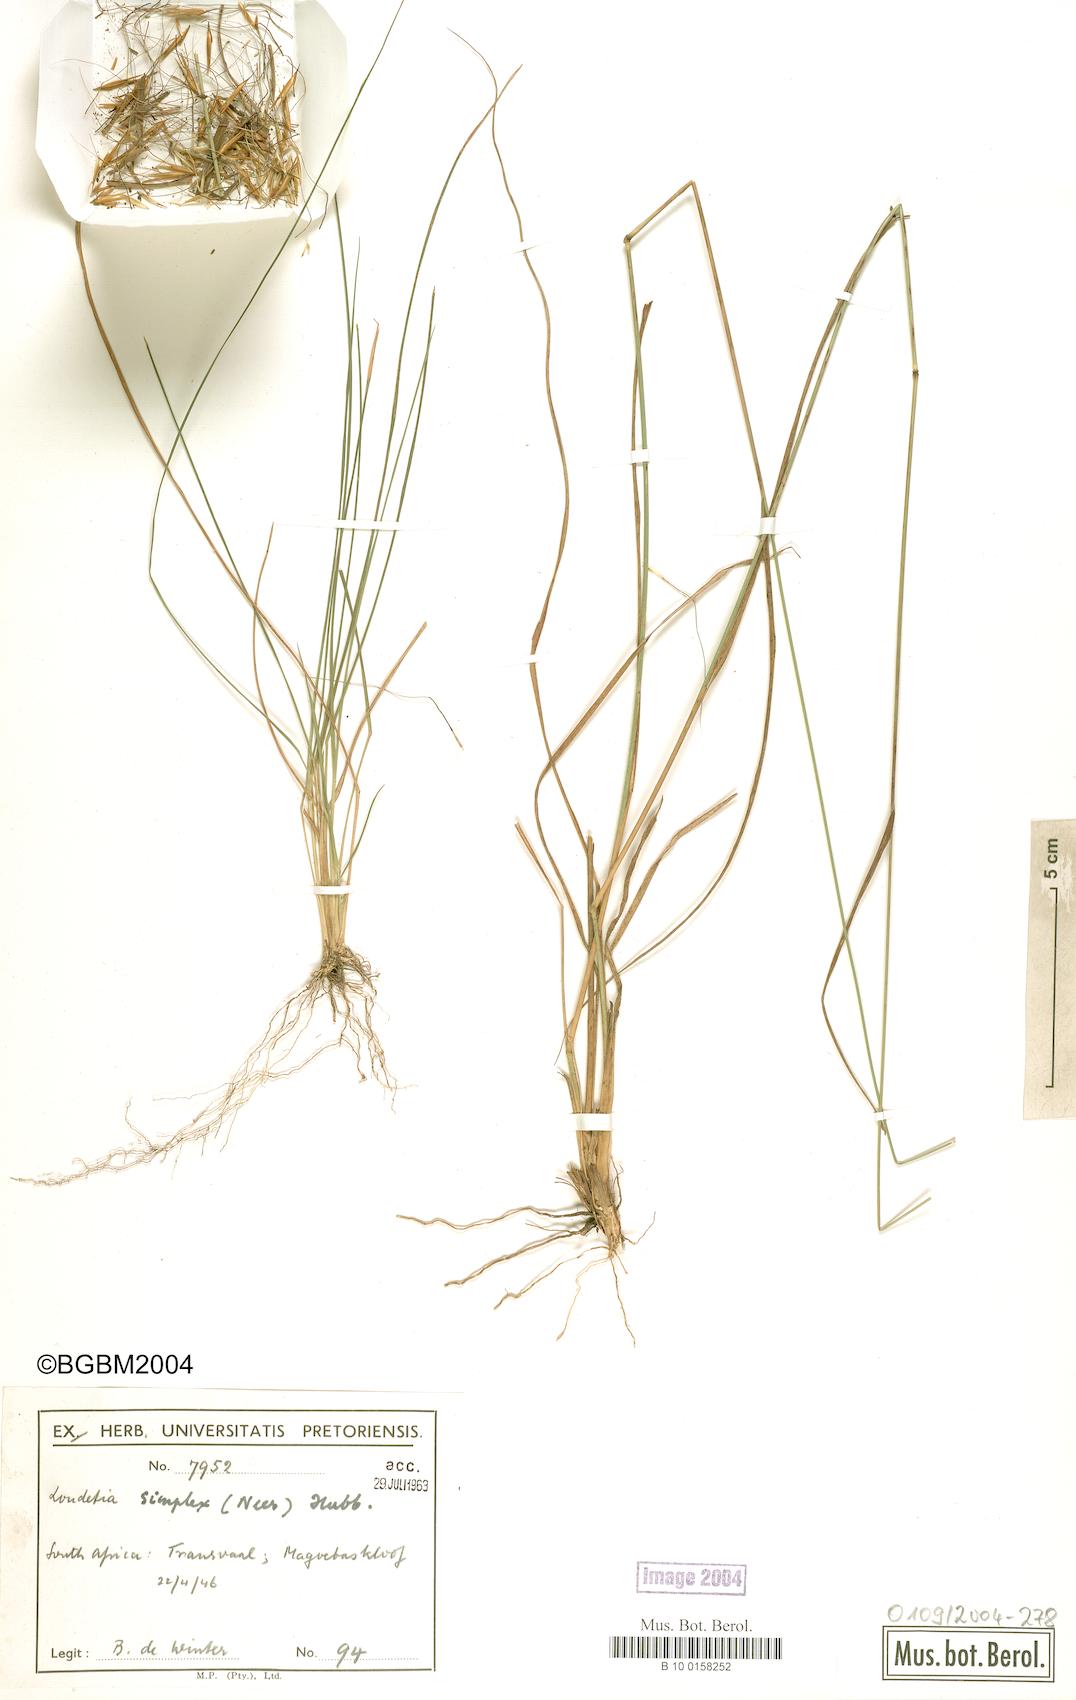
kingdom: Plantae
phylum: Tracheophyta
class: Liliopsida
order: Poales
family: Poaceae
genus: Loudetia
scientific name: Loudetia simplex
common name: Common russet grass
